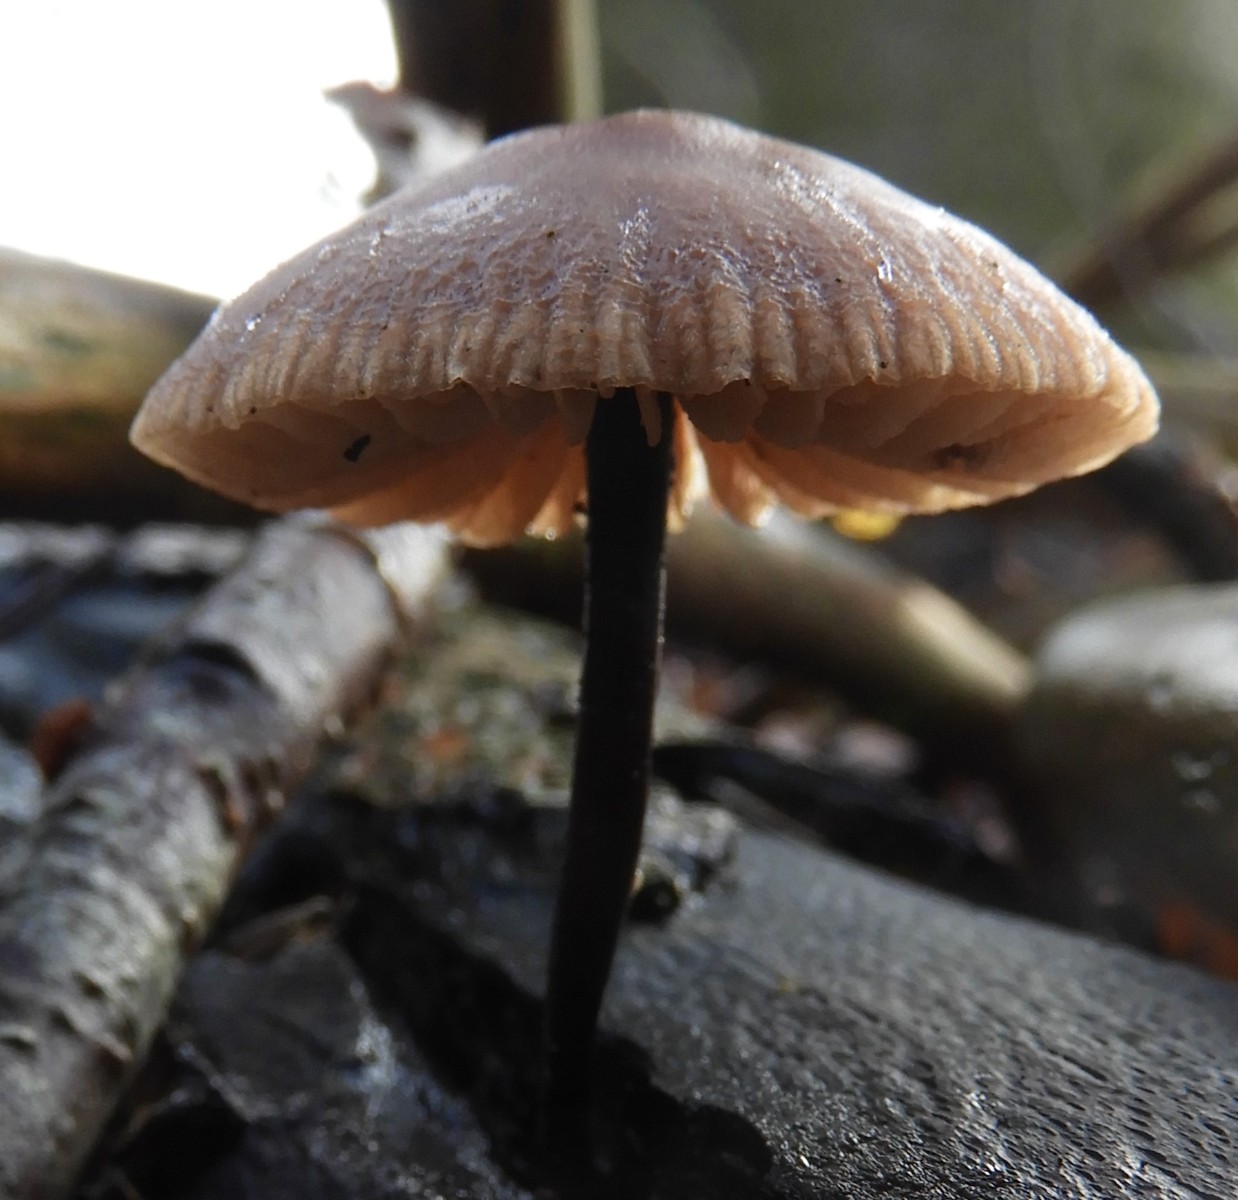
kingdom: Fungi
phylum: Basidiomycota
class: Agaricomycetes
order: Agaricales
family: Omphalotaceae
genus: Mycetinis
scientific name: Mycetinis alliaceus
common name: stor løghat
